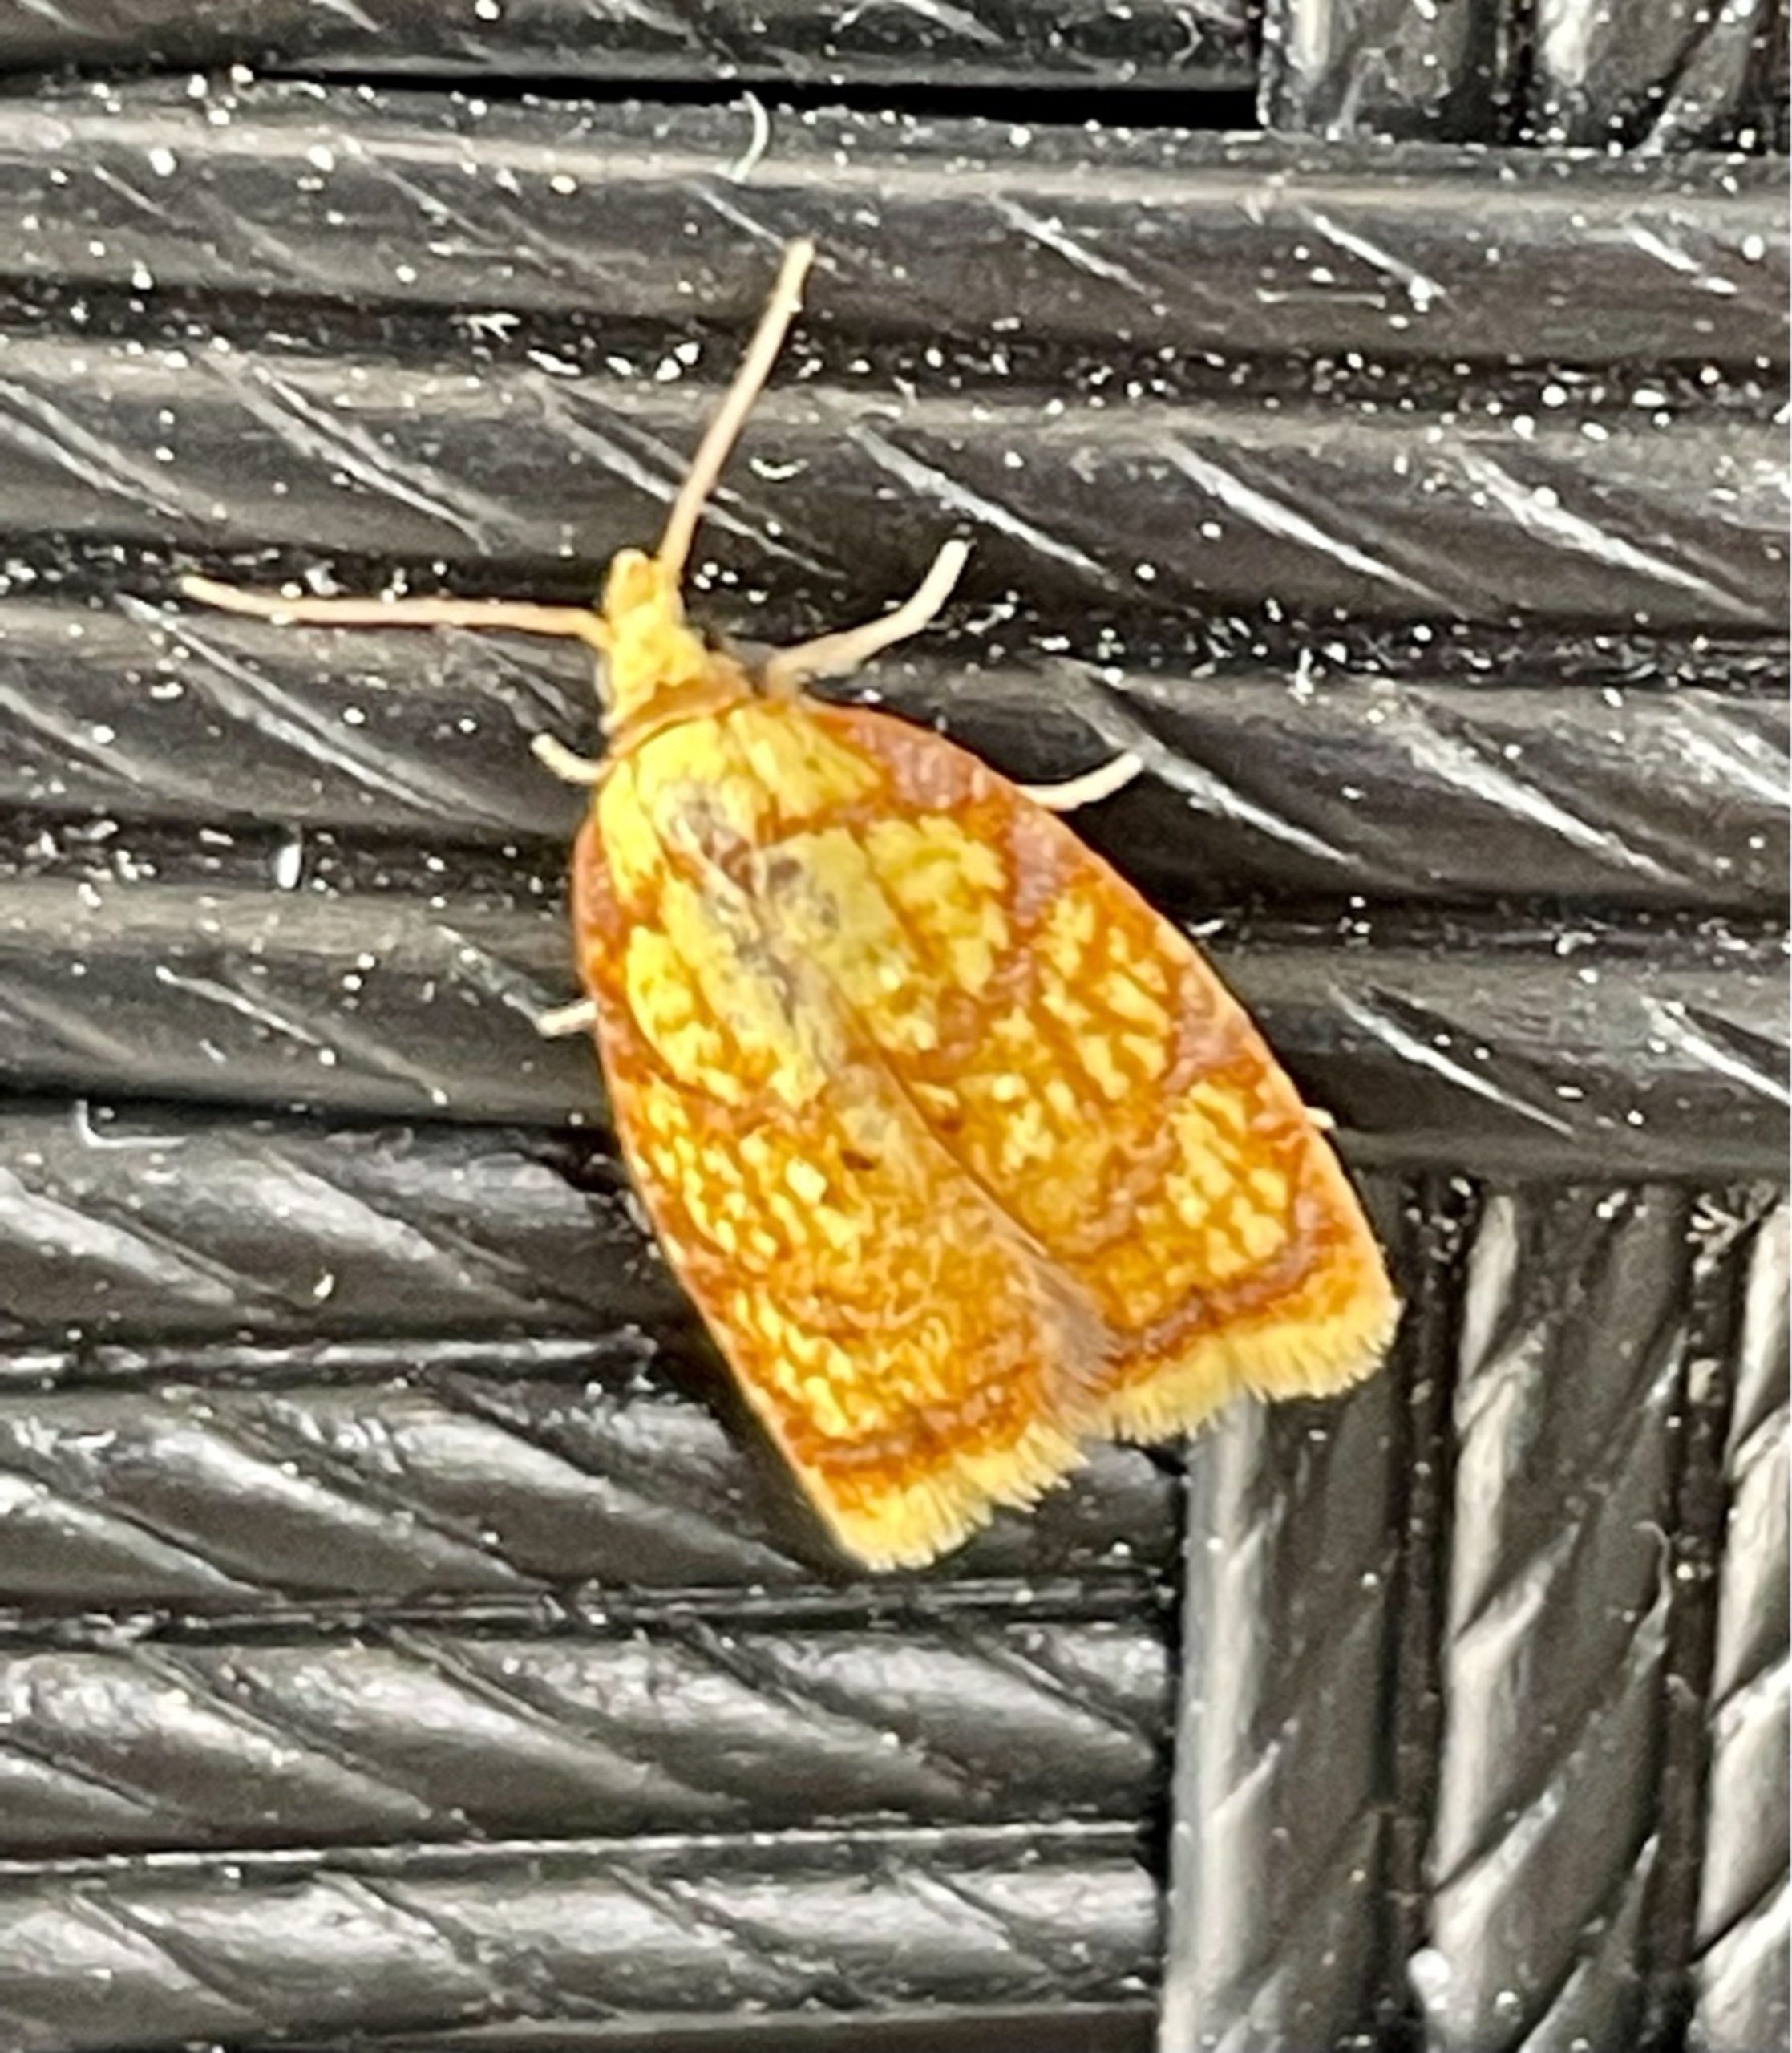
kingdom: Animalia
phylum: Arthropoda
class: Insecta
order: Lepidoptera
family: Tortricidae
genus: Acleris
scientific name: Acleris bergmanniana
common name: Gul rosenvikler
